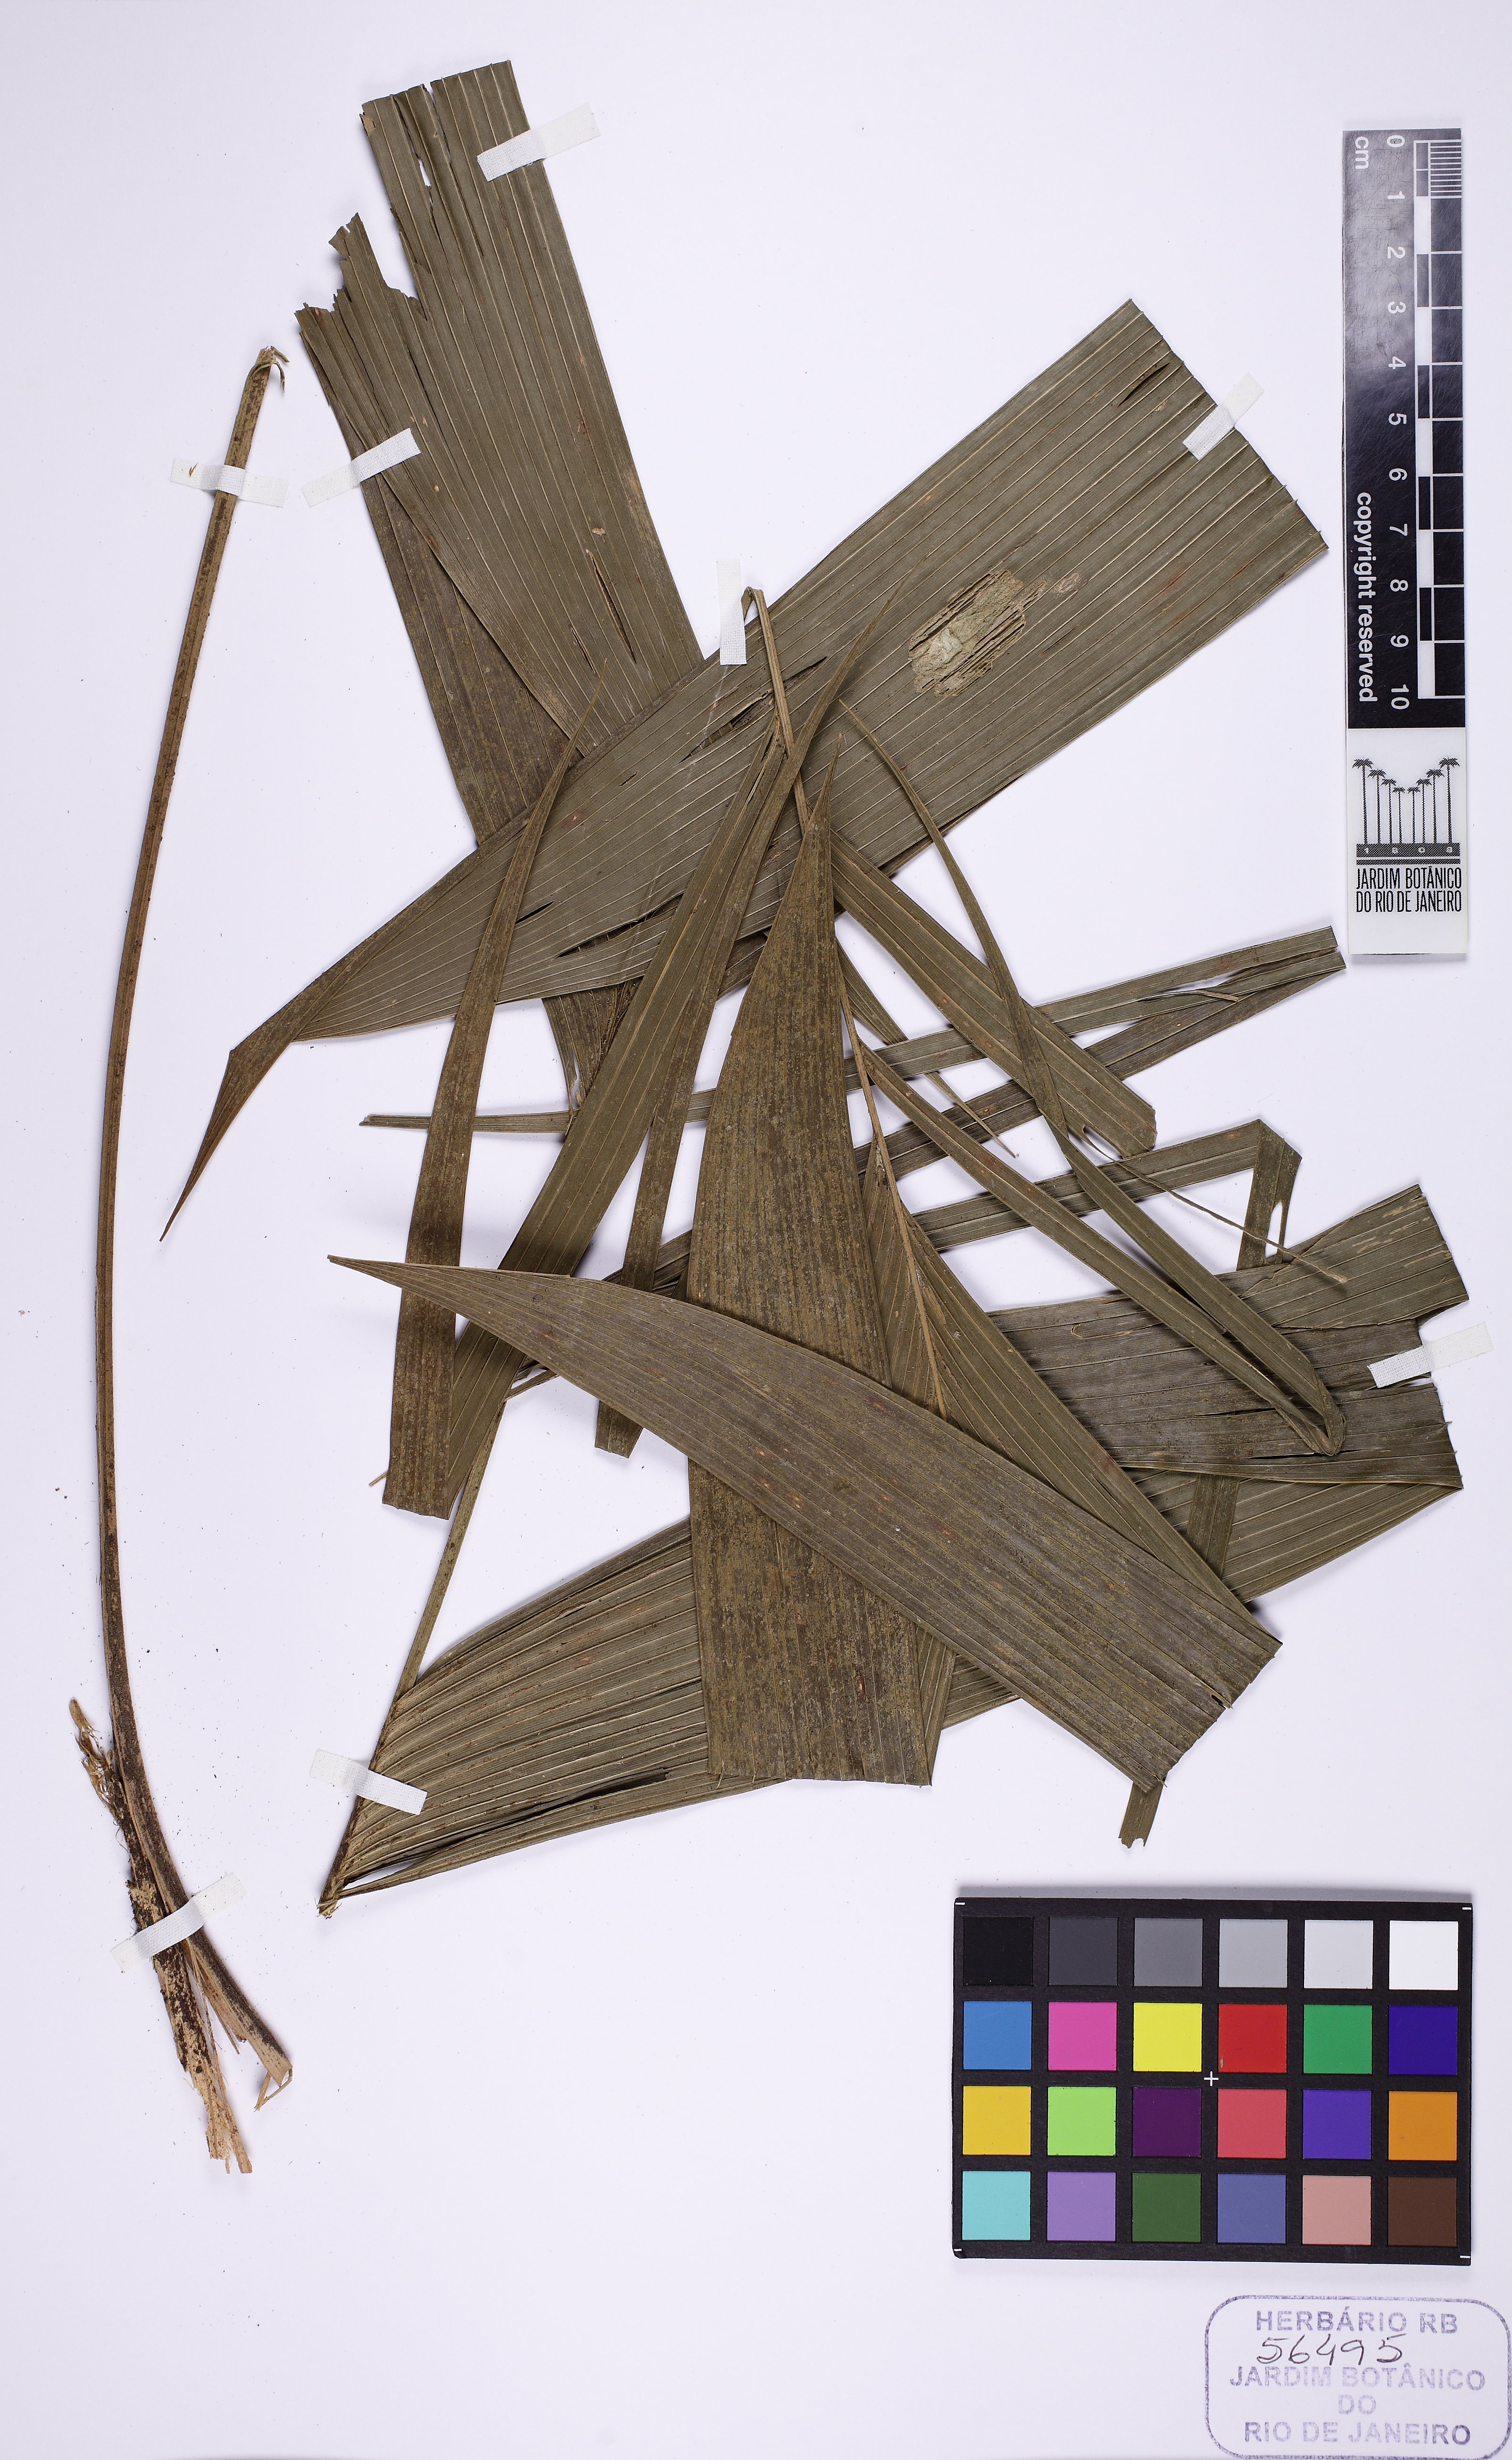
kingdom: Plantae
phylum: Tracheophyta
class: Liliopsida
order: Arecales
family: Arecaceae
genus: Geonoma
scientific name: Geonoma pohliana
